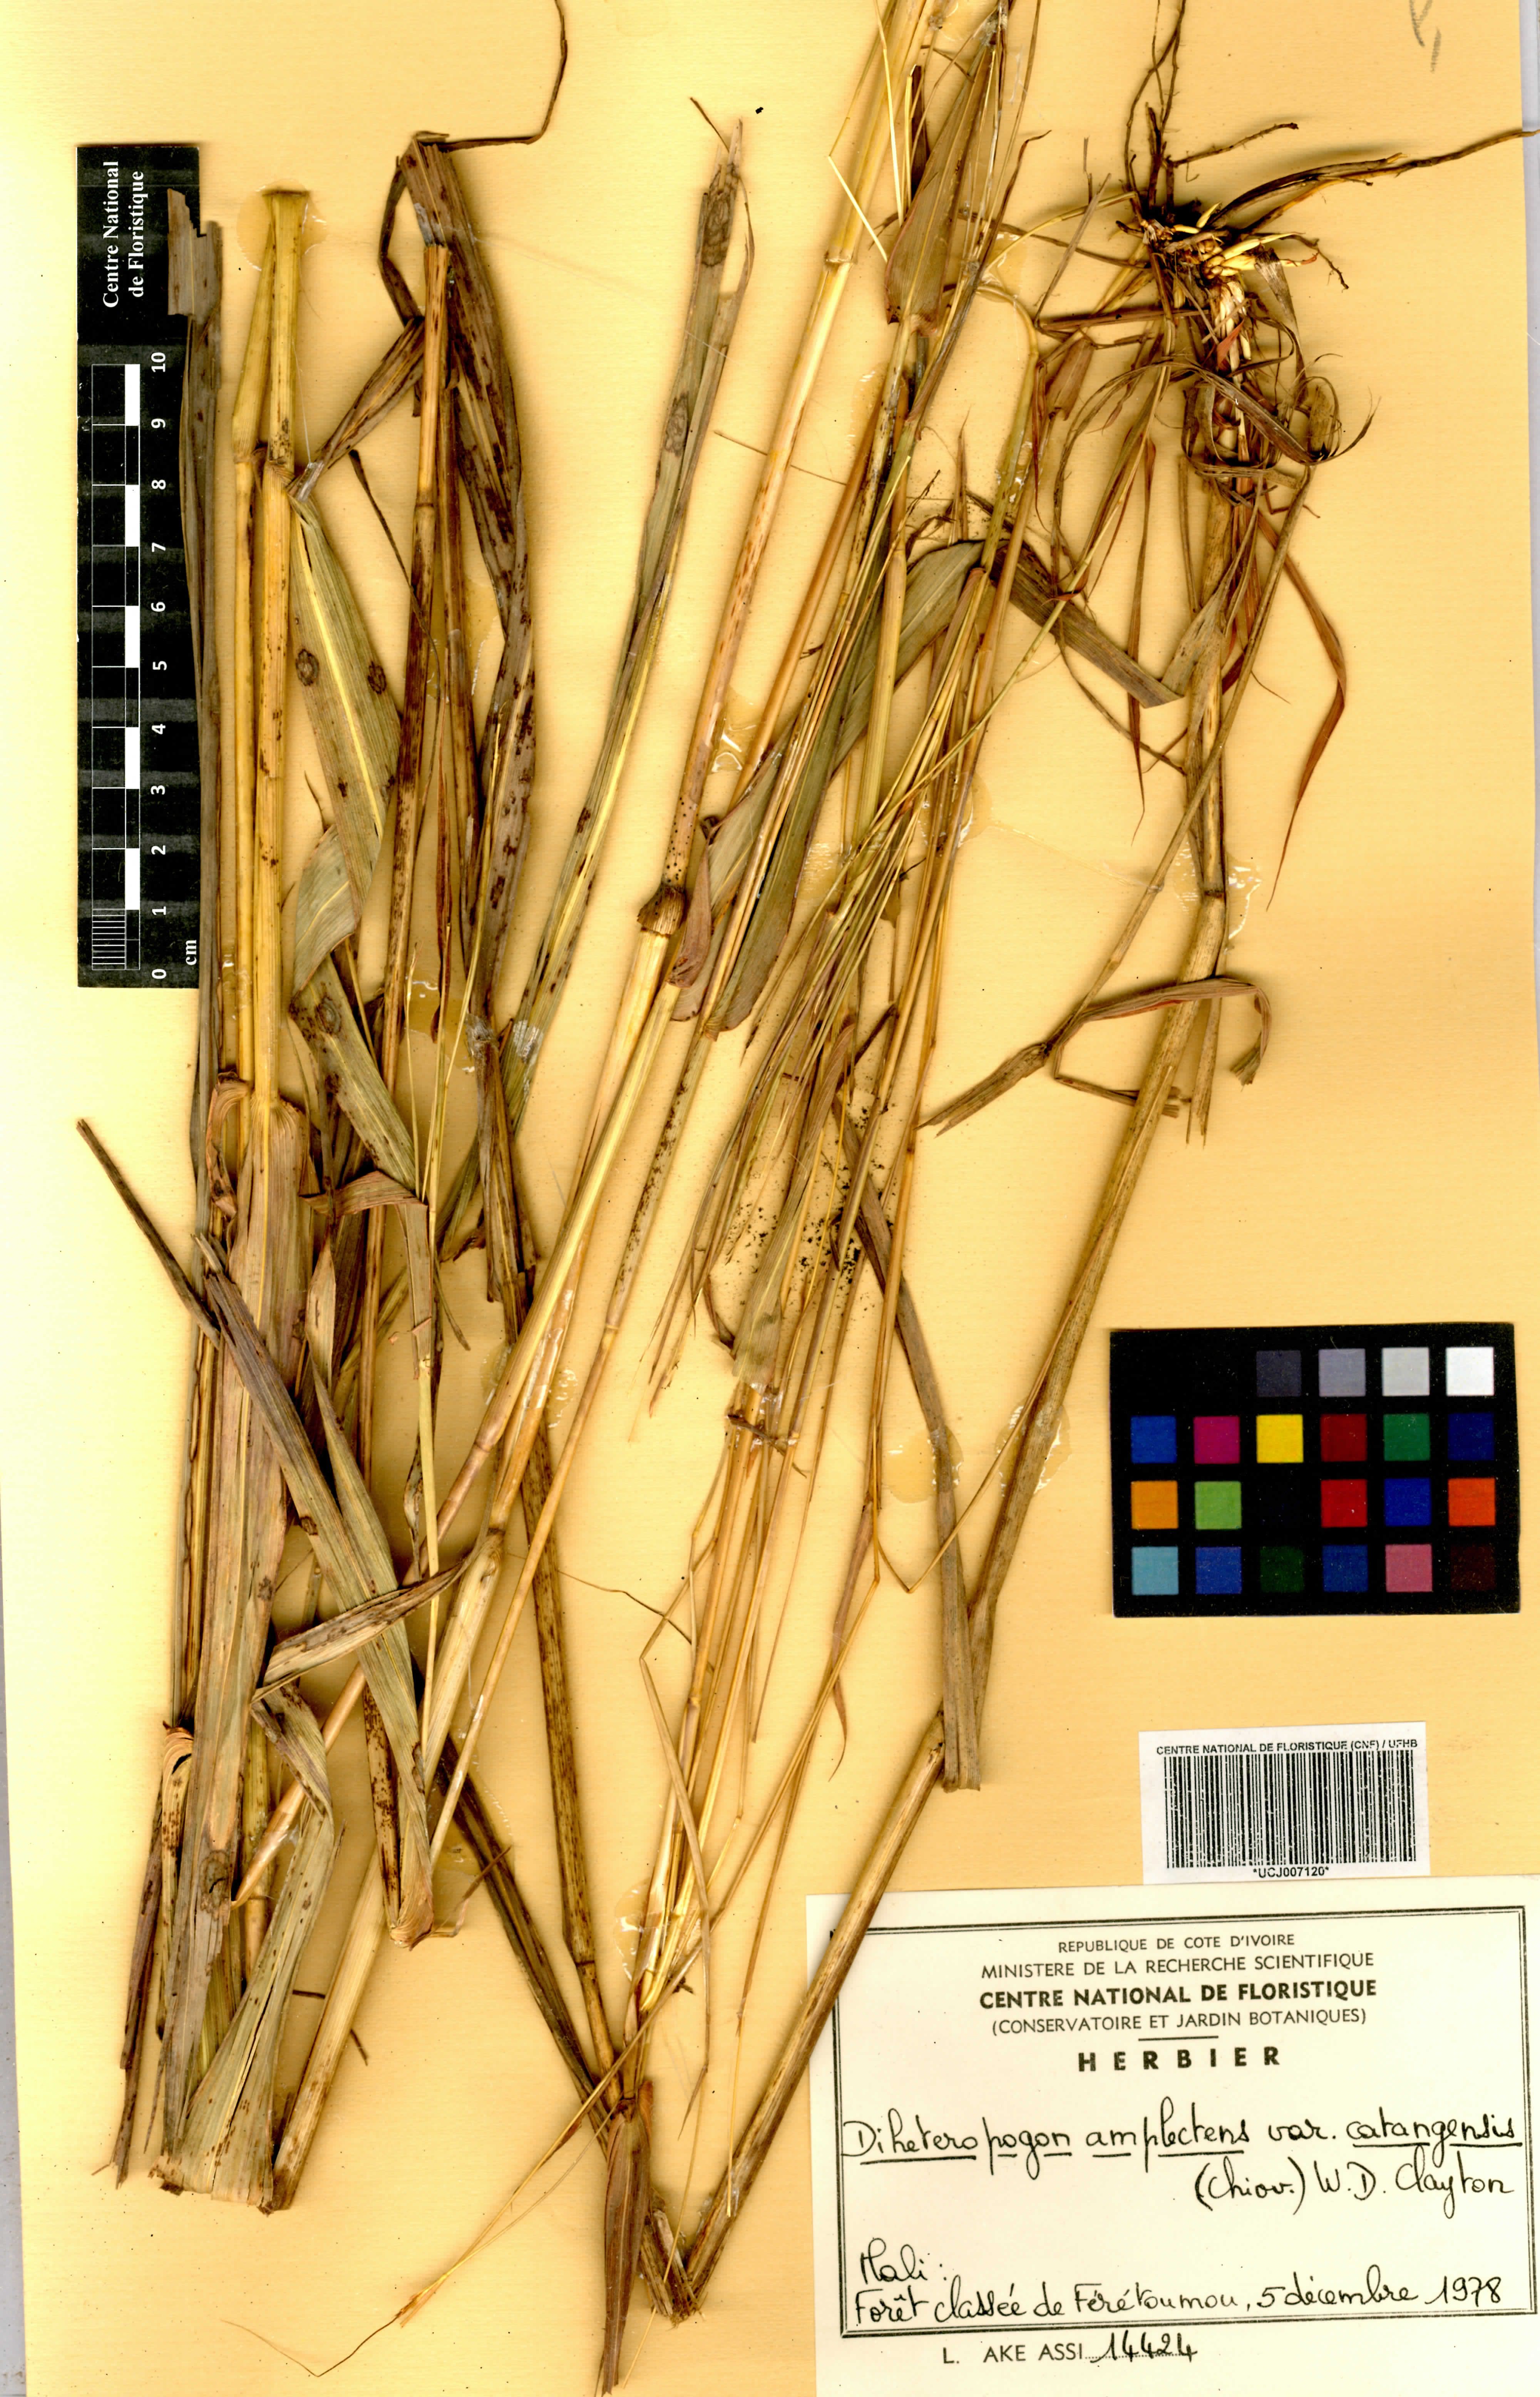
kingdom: Plantae
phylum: Tracheophyta
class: Liliopsida
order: Poales
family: Poaceae
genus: Diheteropogon
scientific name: Diheteropogon amplectens
